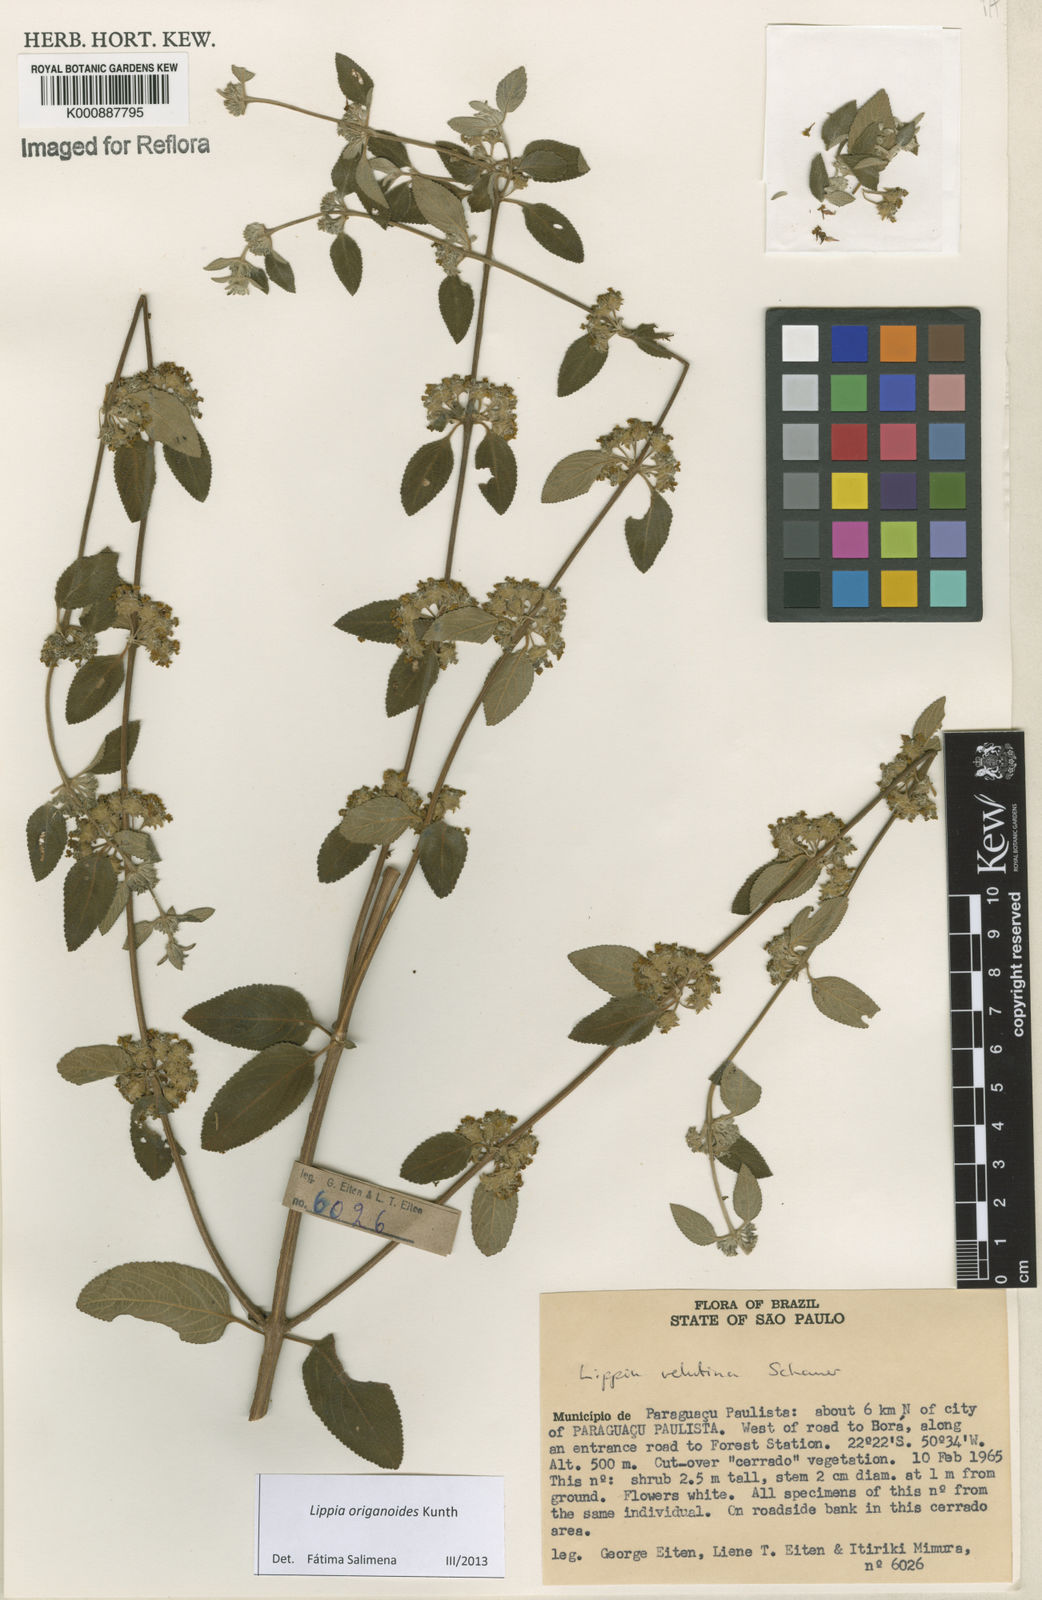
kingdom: Plantae
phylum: Tracheophyta
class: Magnoliopsida
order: Lamiales
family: Verbenaceae
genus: Lippia
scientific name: Lippia origanoides
